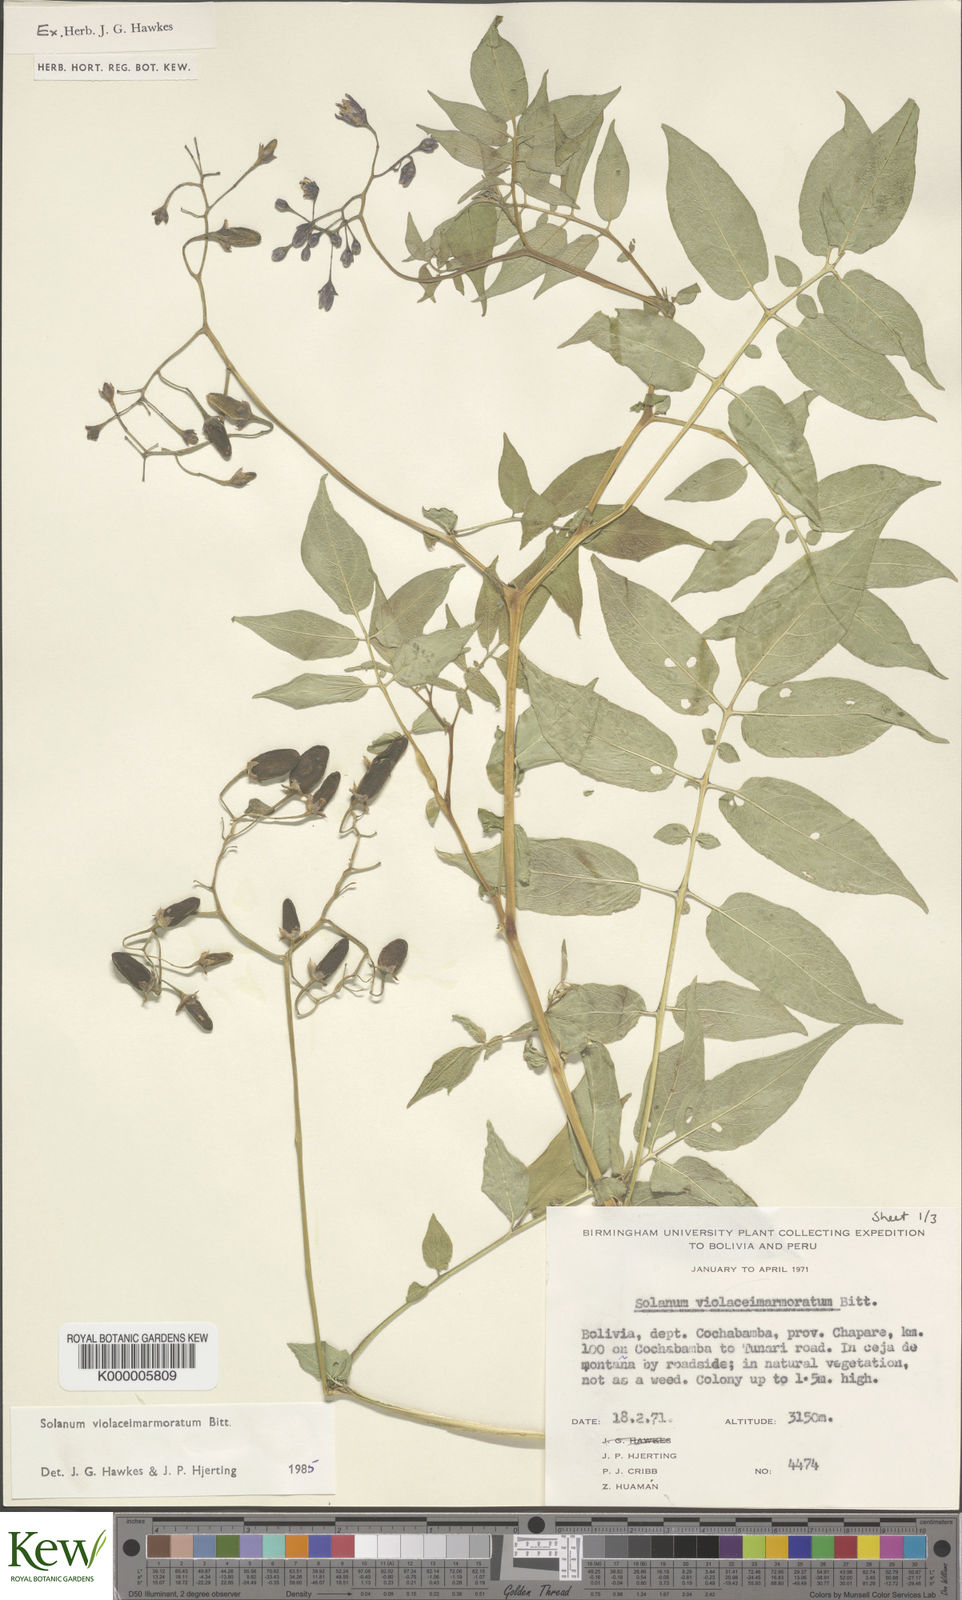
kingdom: Plantae
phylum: Tracheophyta
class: Magnoliopsida
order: Solanales
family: Solanaceae
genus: Solanum
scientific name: Solanum violaceimarmoratum
